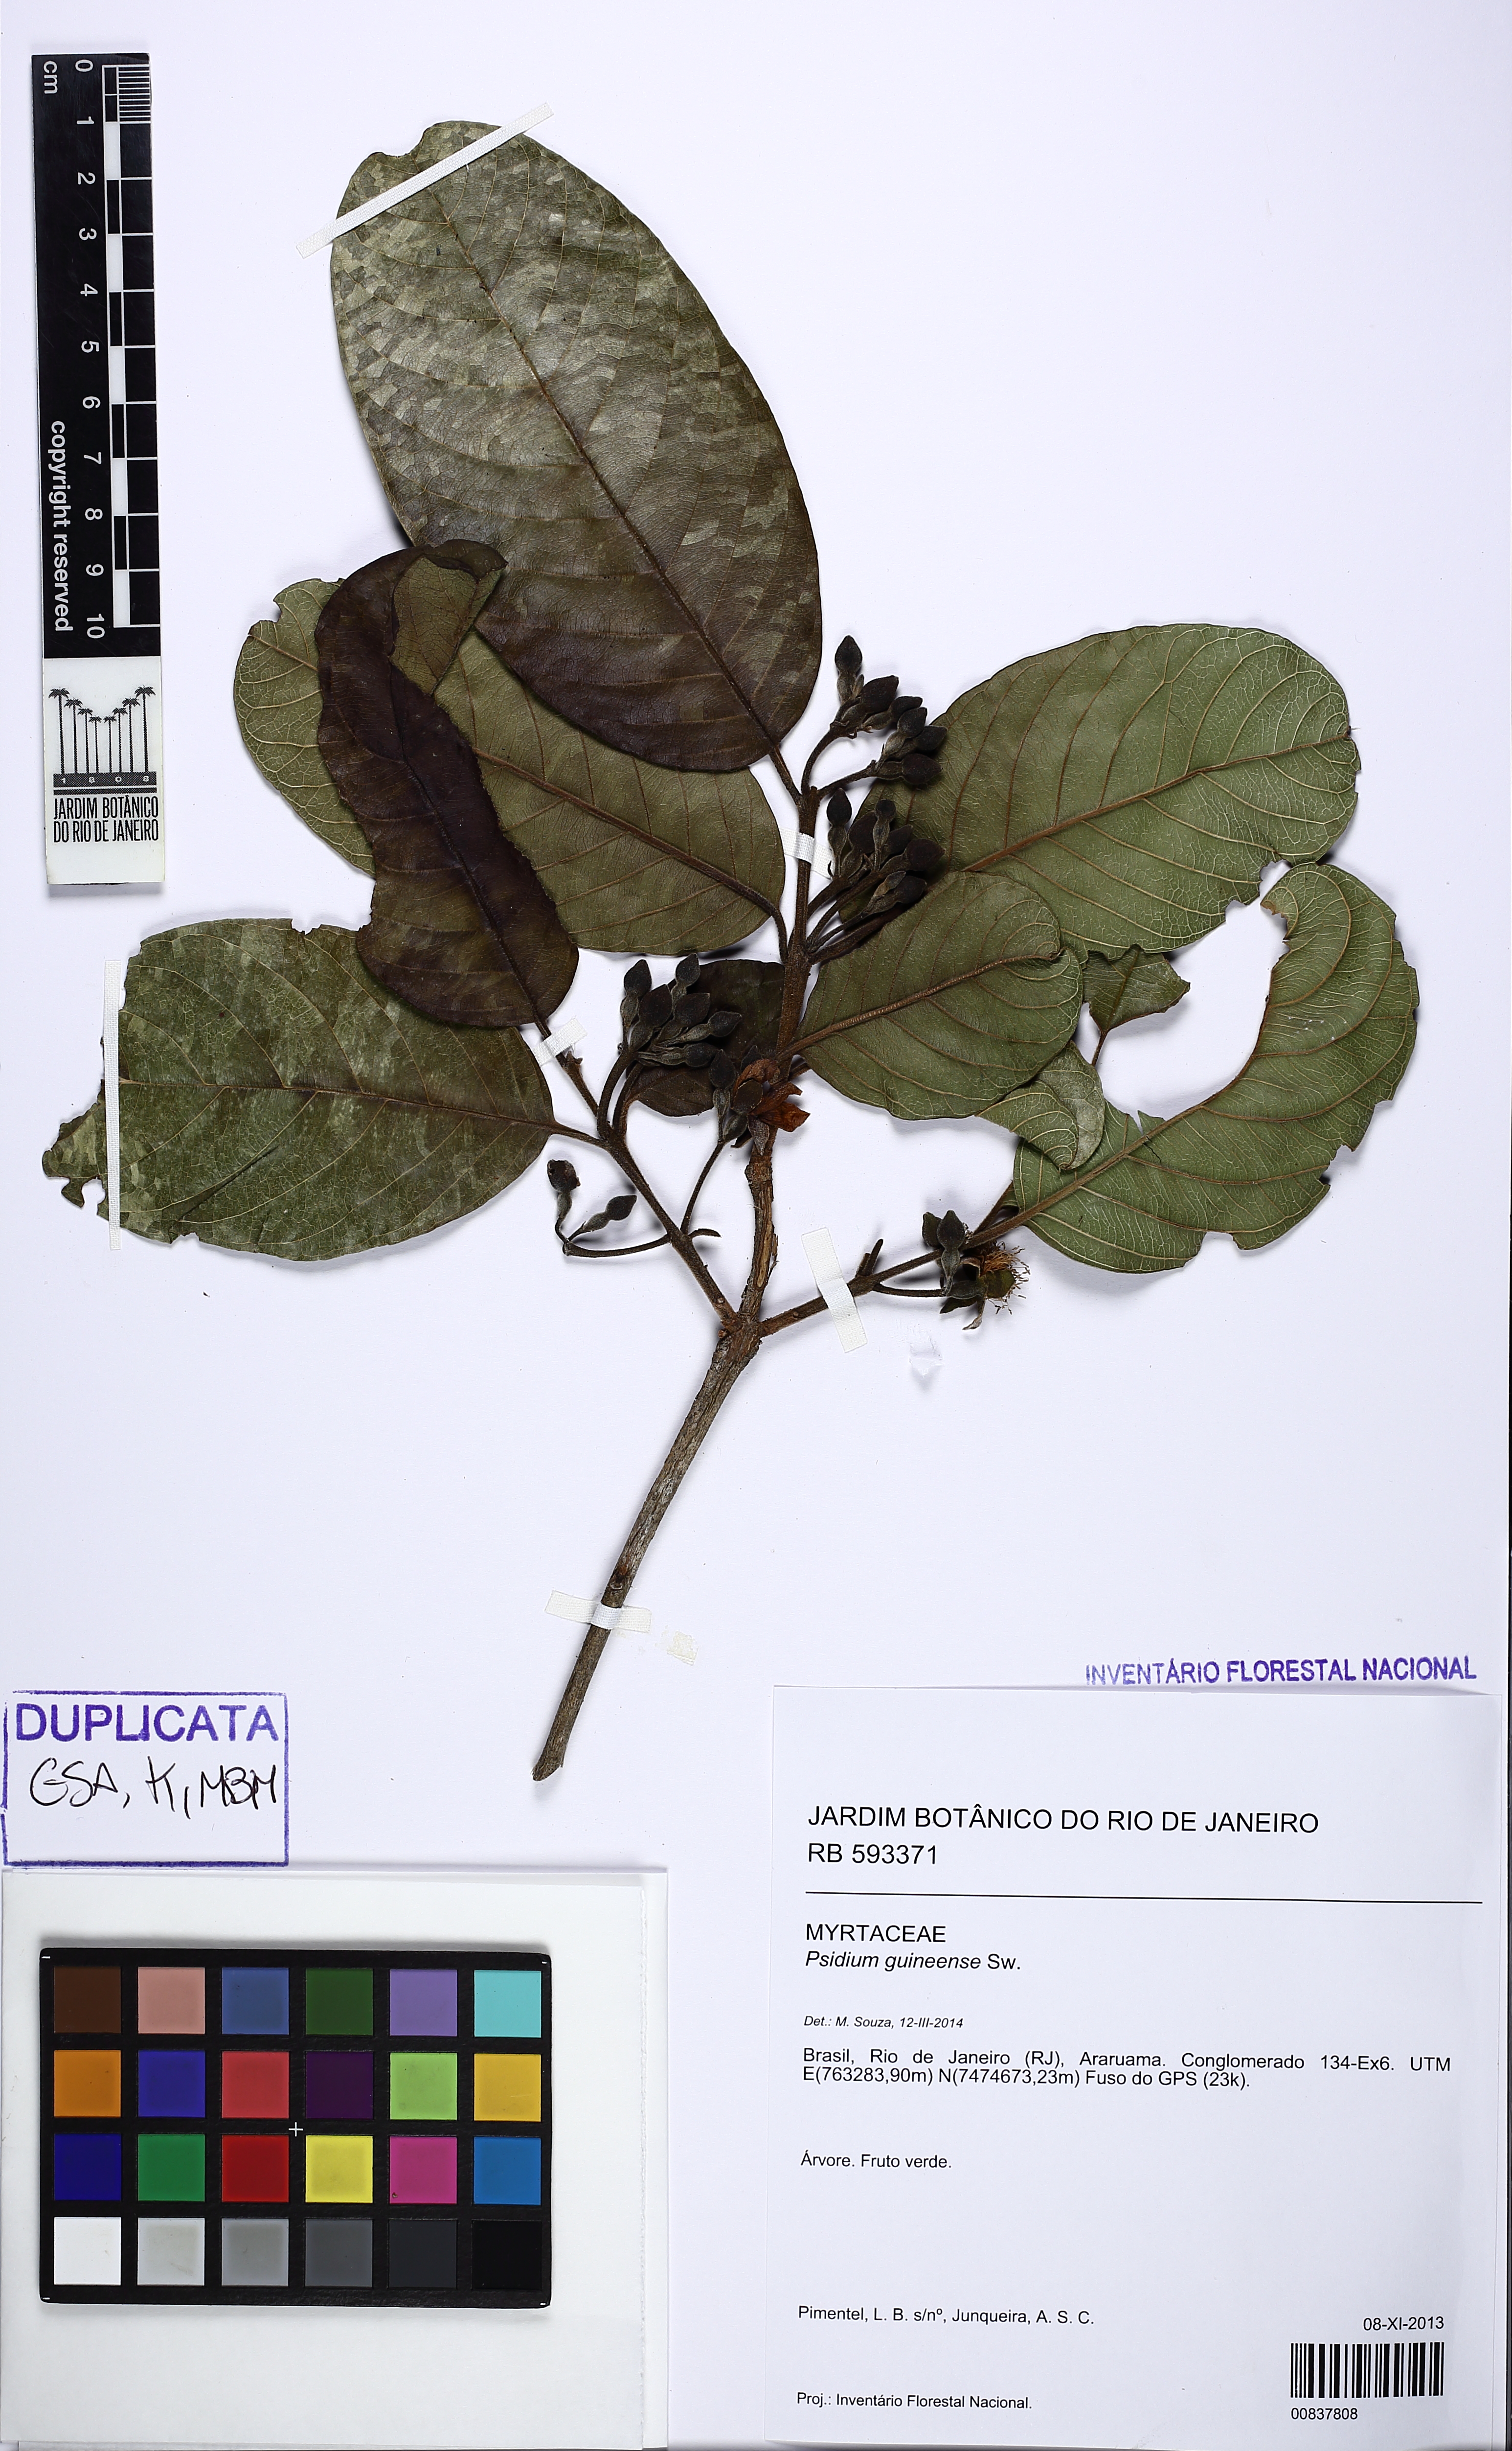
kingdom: Plantae
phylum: Tracheophyta
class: Magnoliopsida
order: Myrtales
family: Myrtaceae
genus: Psidium
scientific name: Psidium guineense
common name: Brazilian guava
